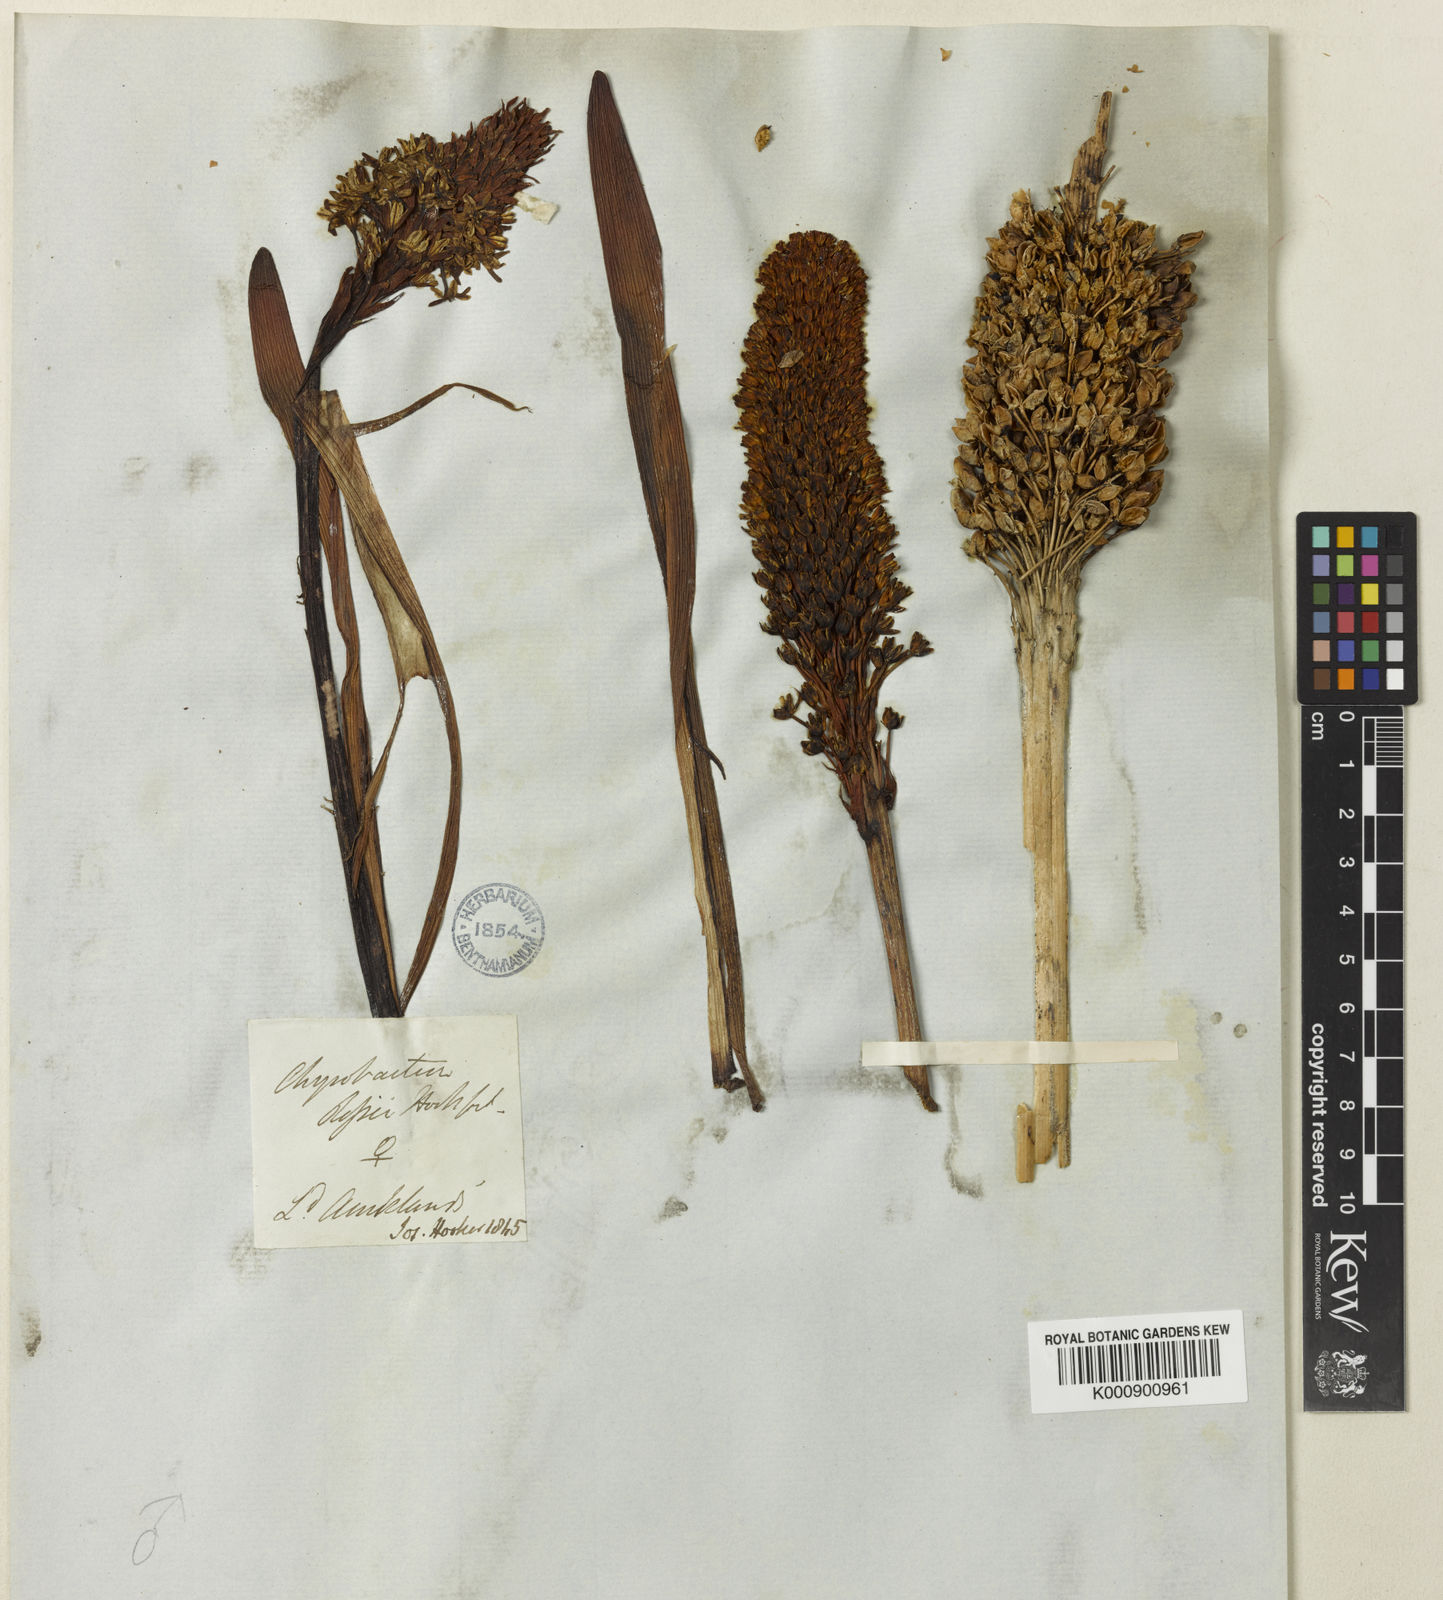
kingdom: Plantae
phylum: Tracheophyta
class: Liliopsida
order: Asparagales
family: Asphodelaceae
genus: Bulbinella
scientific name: Bulbinella
